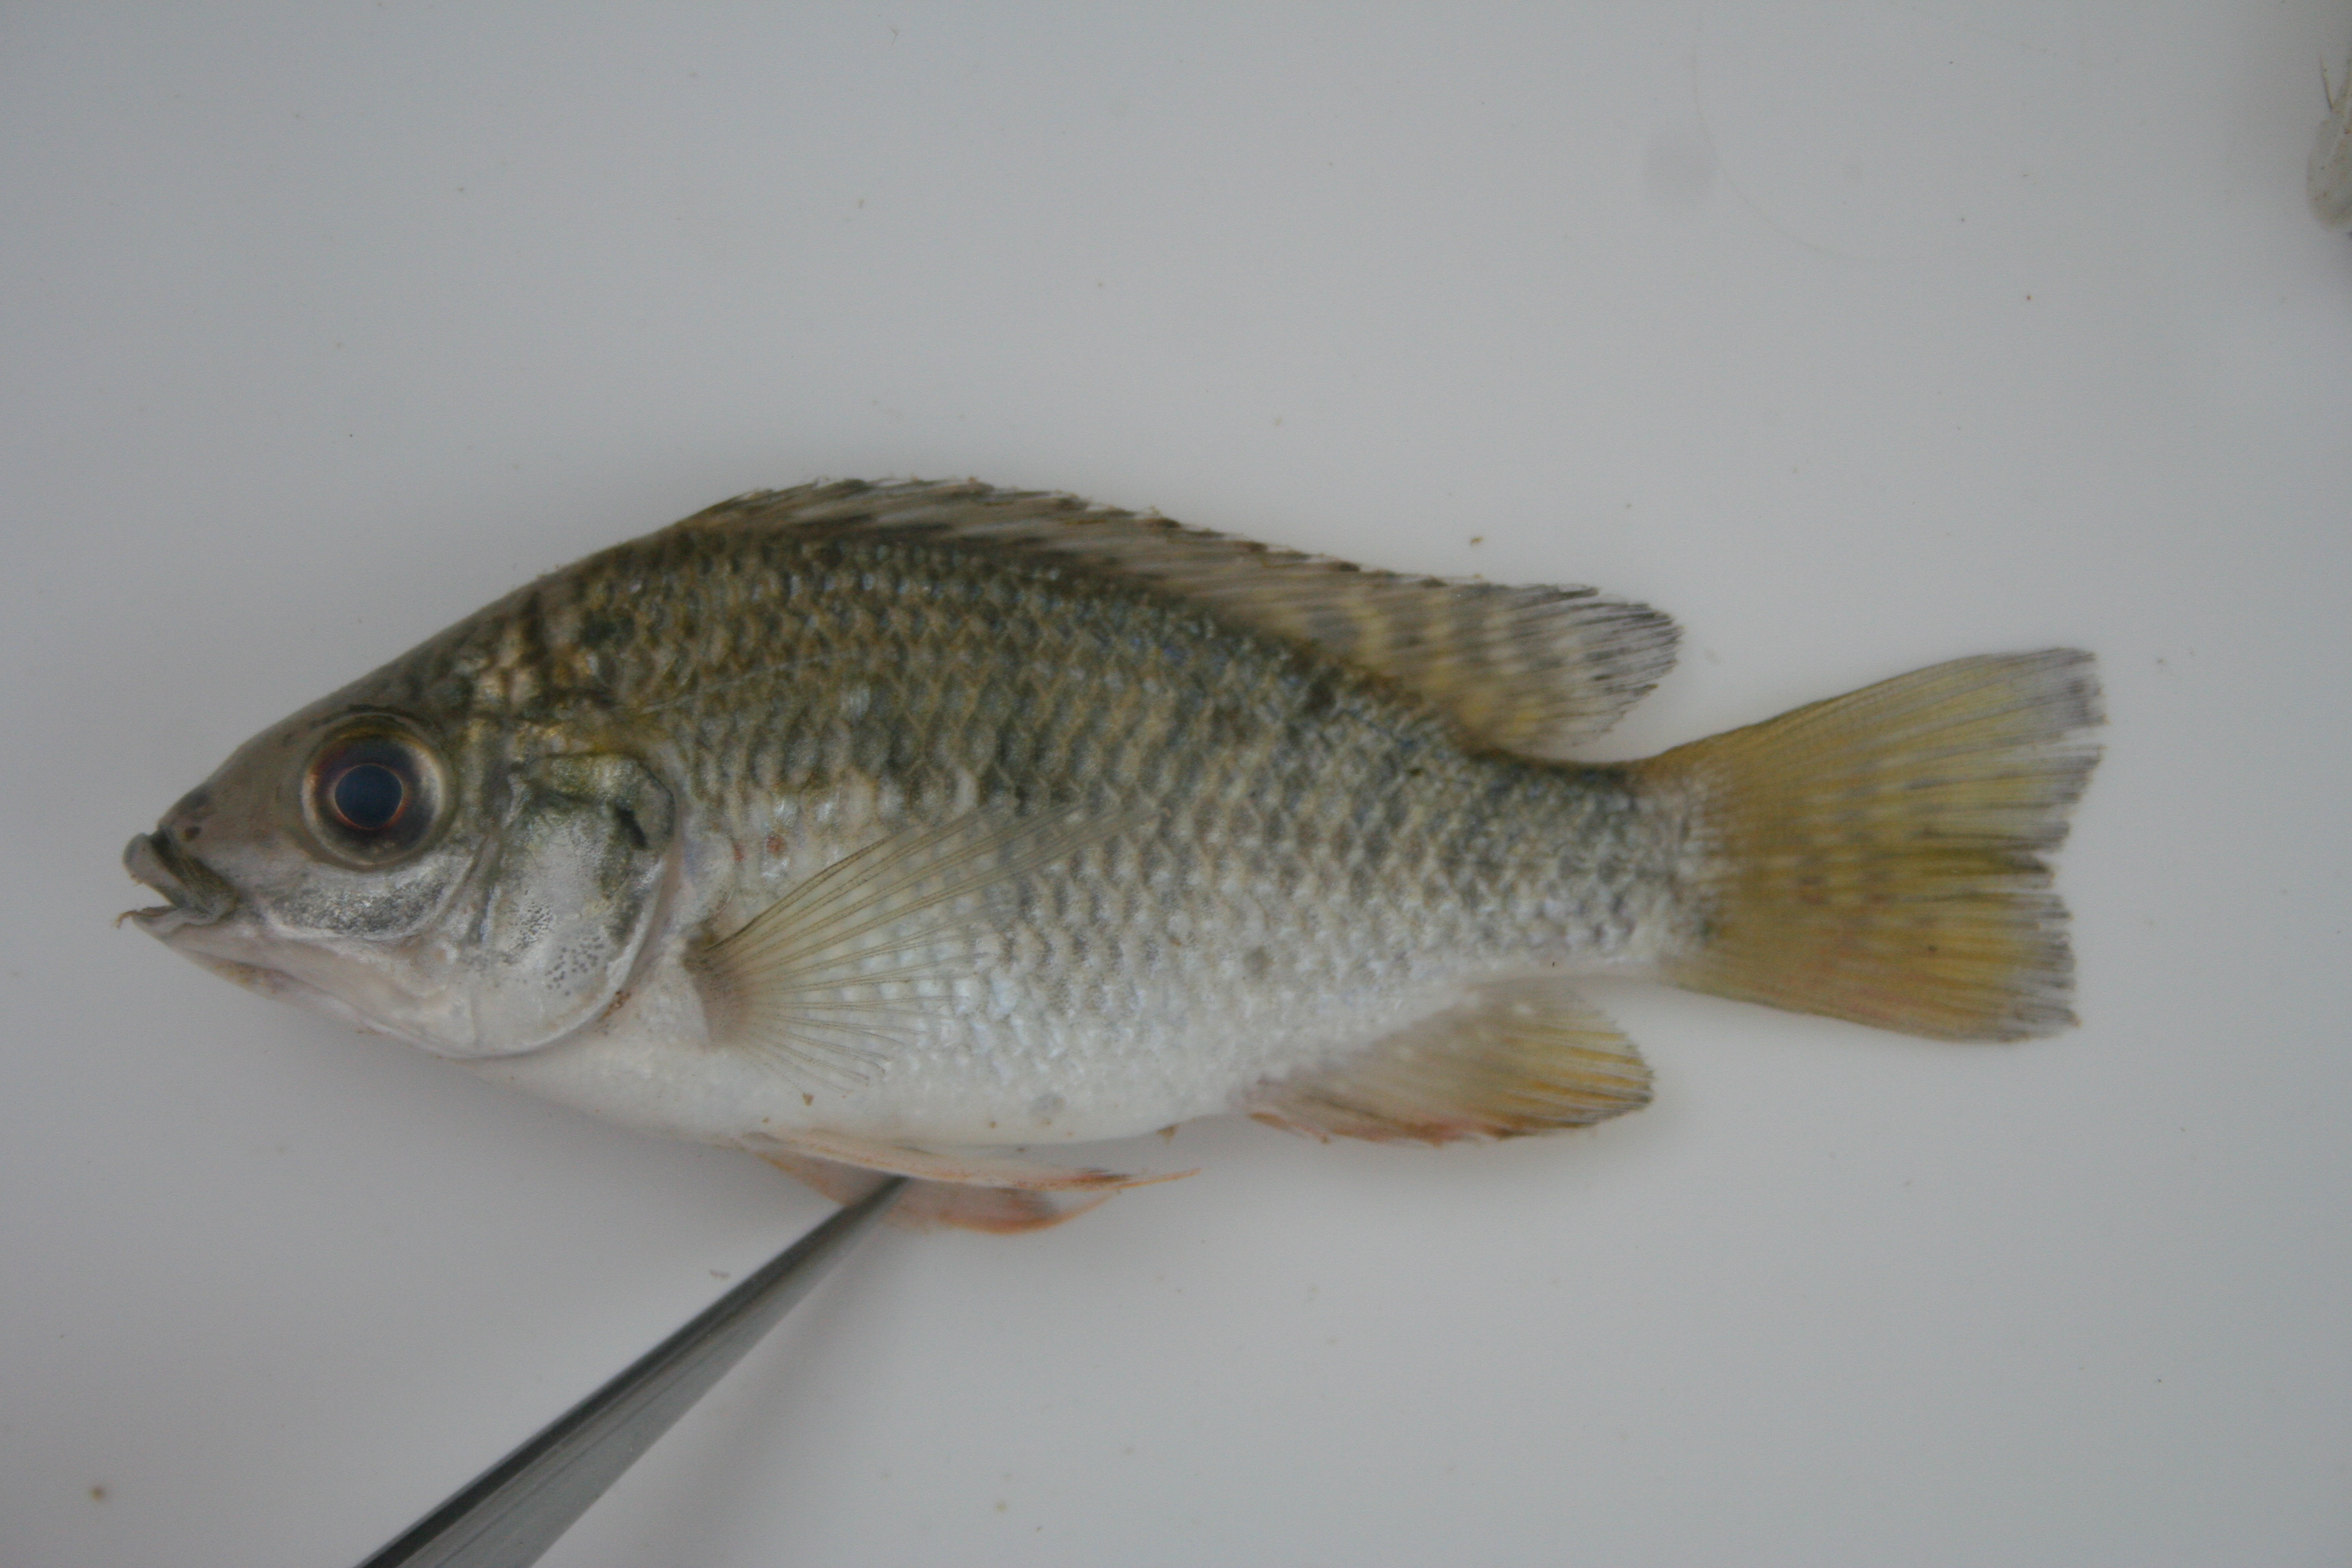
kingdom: Animalia
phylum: Chordata
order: Perciformes
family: Cichlidae
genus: Tilapia
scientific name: Tilapia
